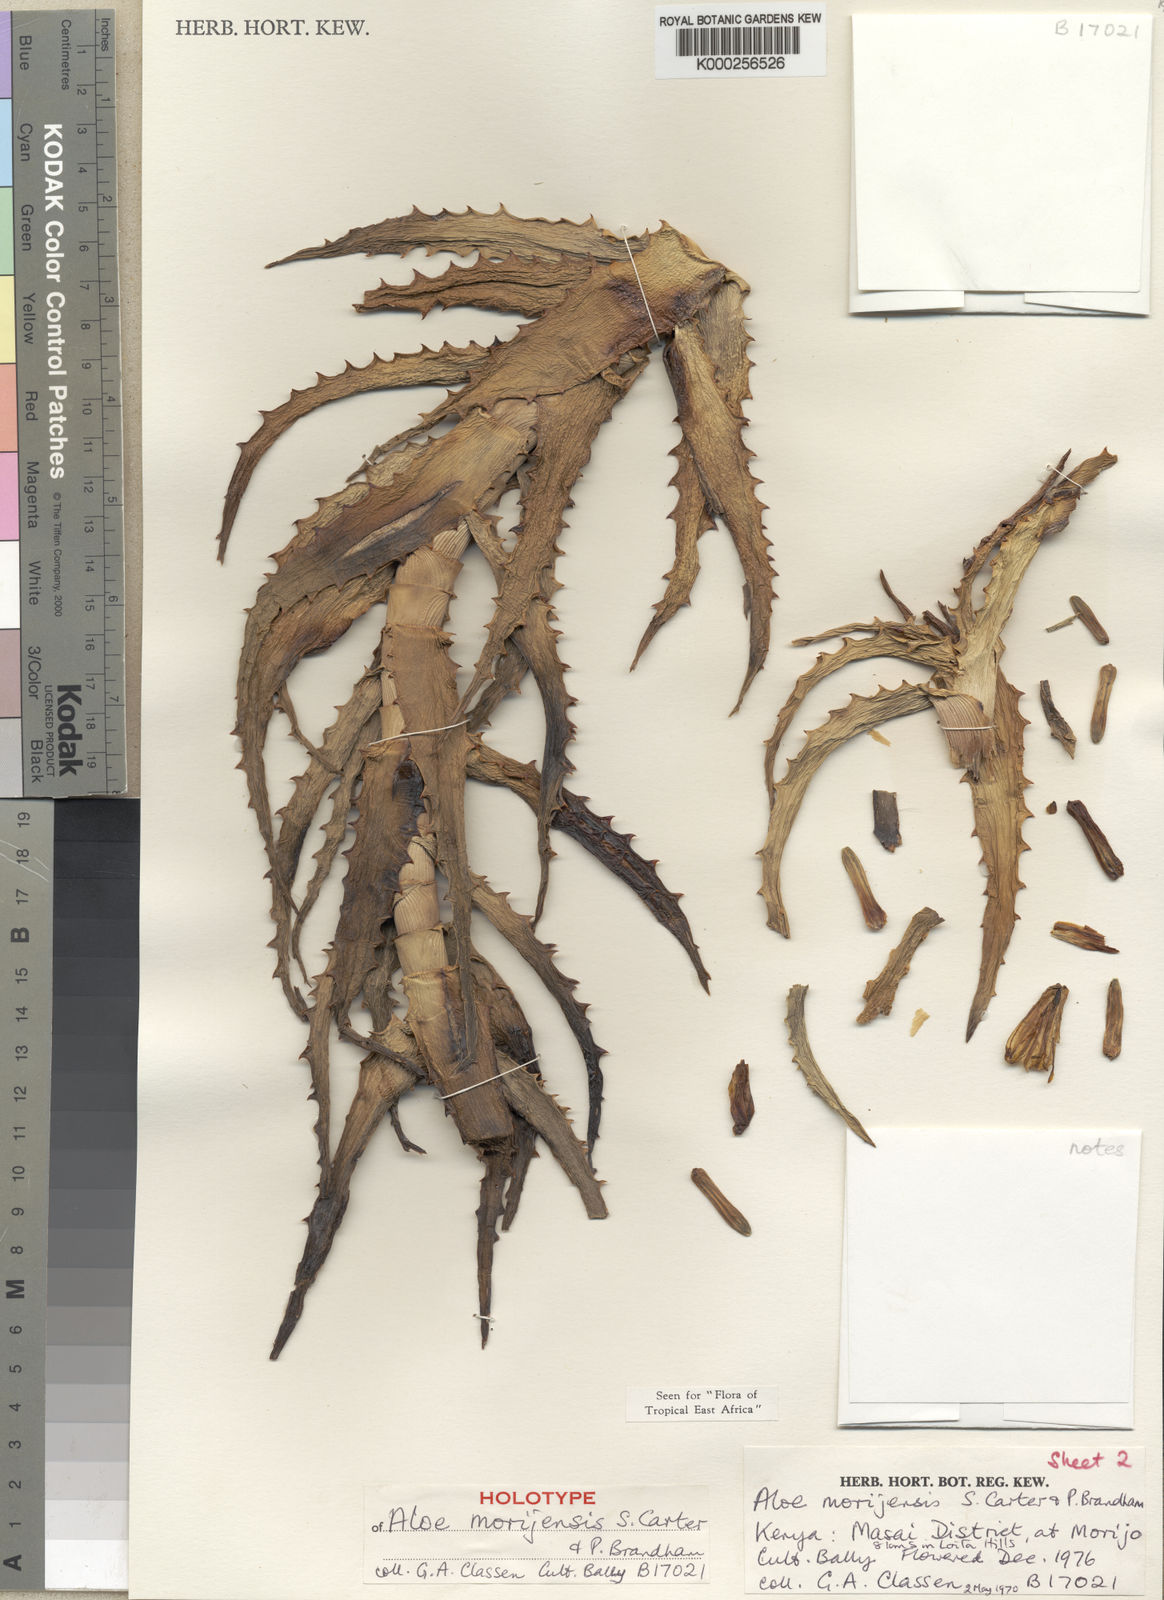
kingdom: Plantae
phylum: Tracheophyta
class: Liliopsida
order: Asparagales
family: Asphodelaceae
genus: Aloe
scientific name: Aloe morijensis
